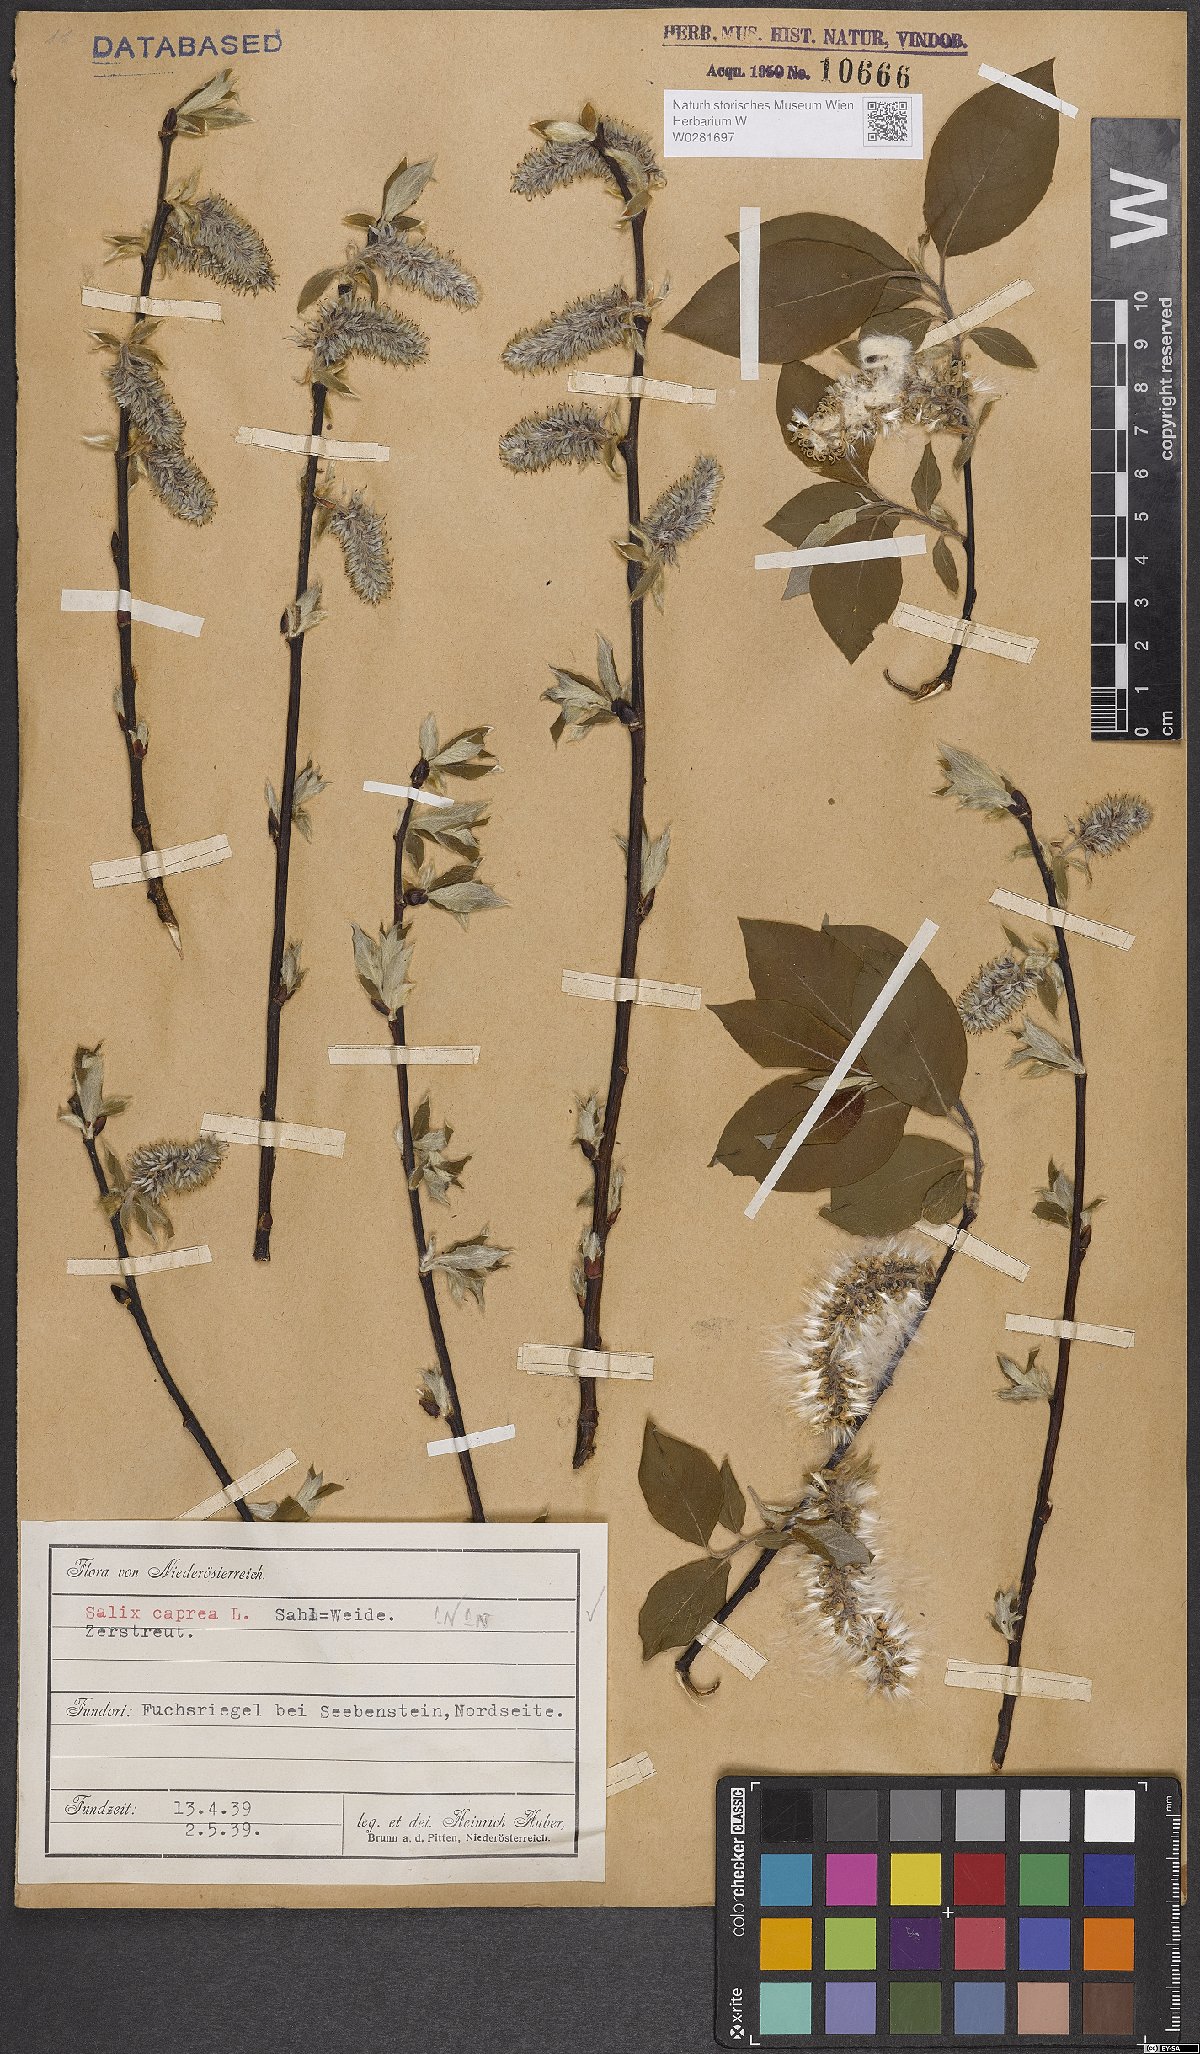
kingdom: Plantae
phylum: Tracheophyta
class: Magnoliopsida
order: Malpighiales
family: Salicaceae
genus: Salix
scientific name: Salix caprea
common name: Goat willow
